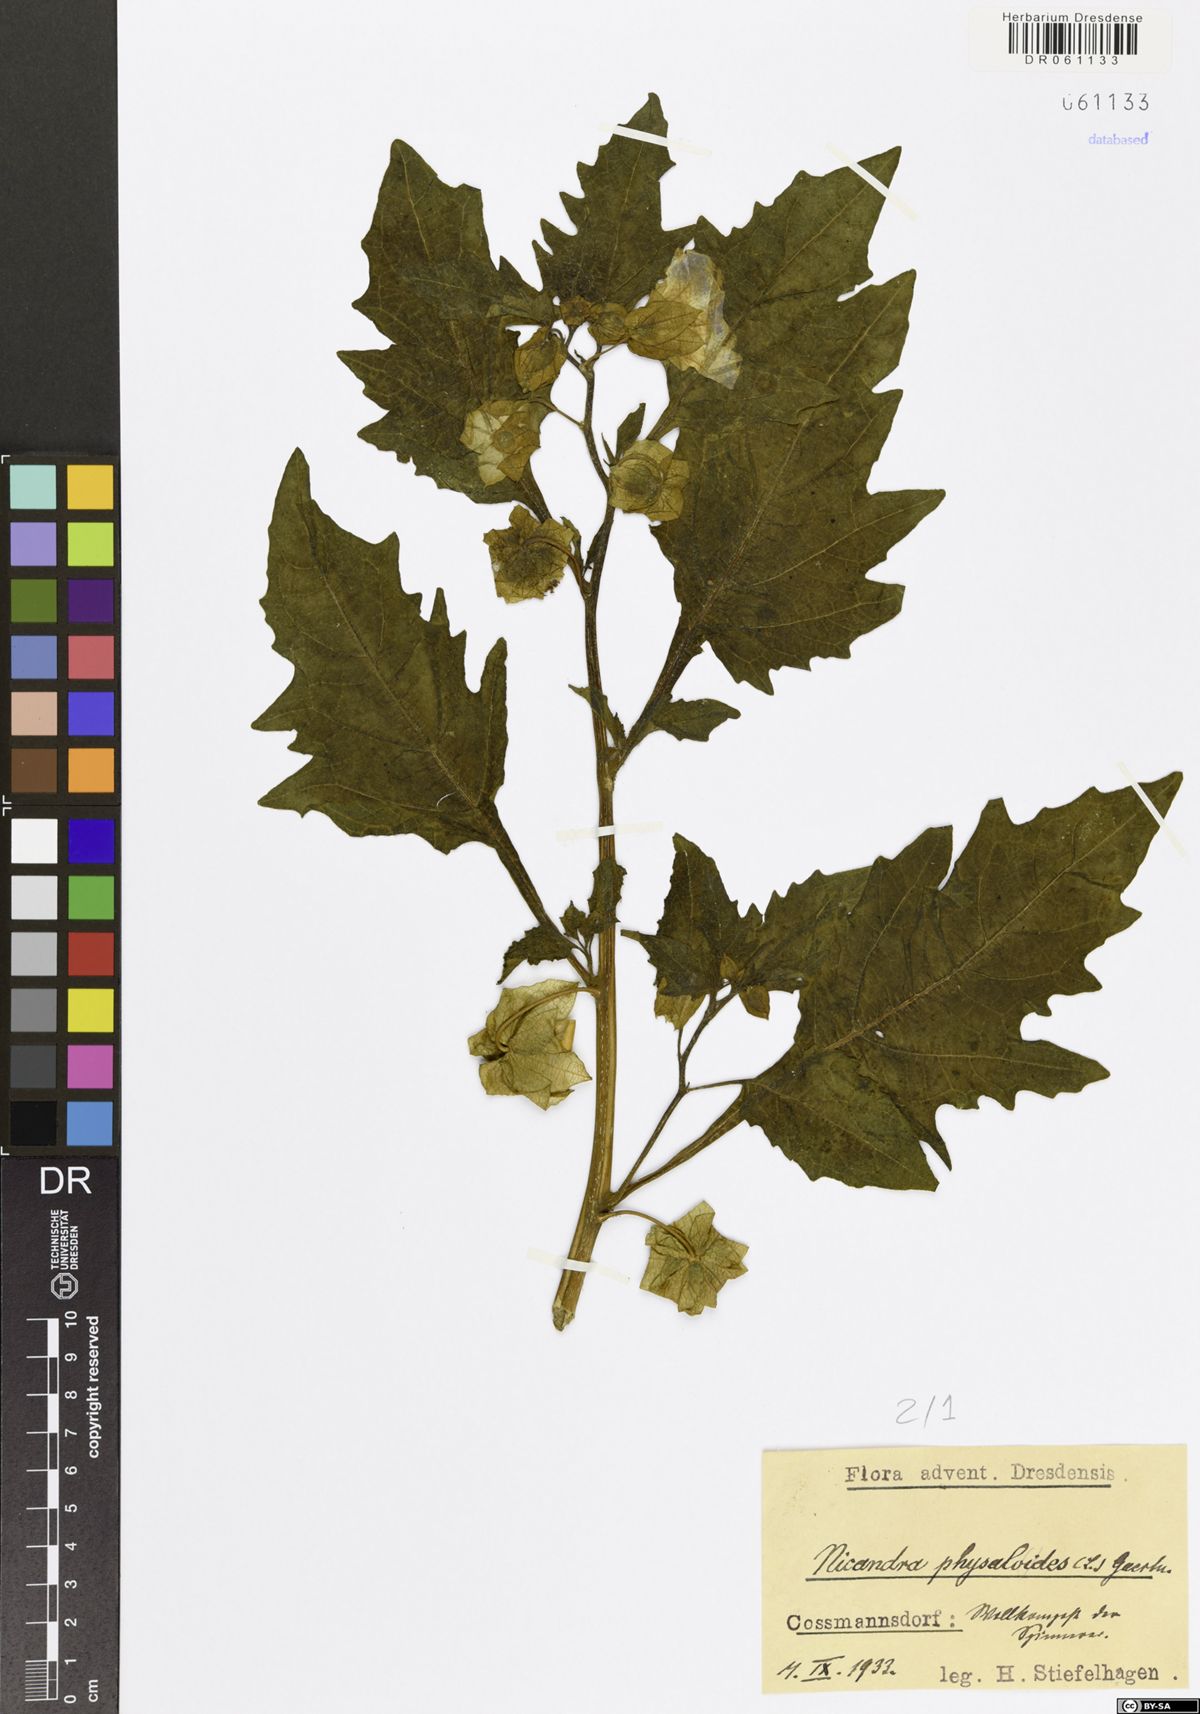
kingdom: Plantae
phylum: Tracheophyta
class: Magnoliopsida
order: Solanales
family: Solanaceae
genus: Nicandra
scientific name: Nicandra physalodes
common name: Apple-of-peru
